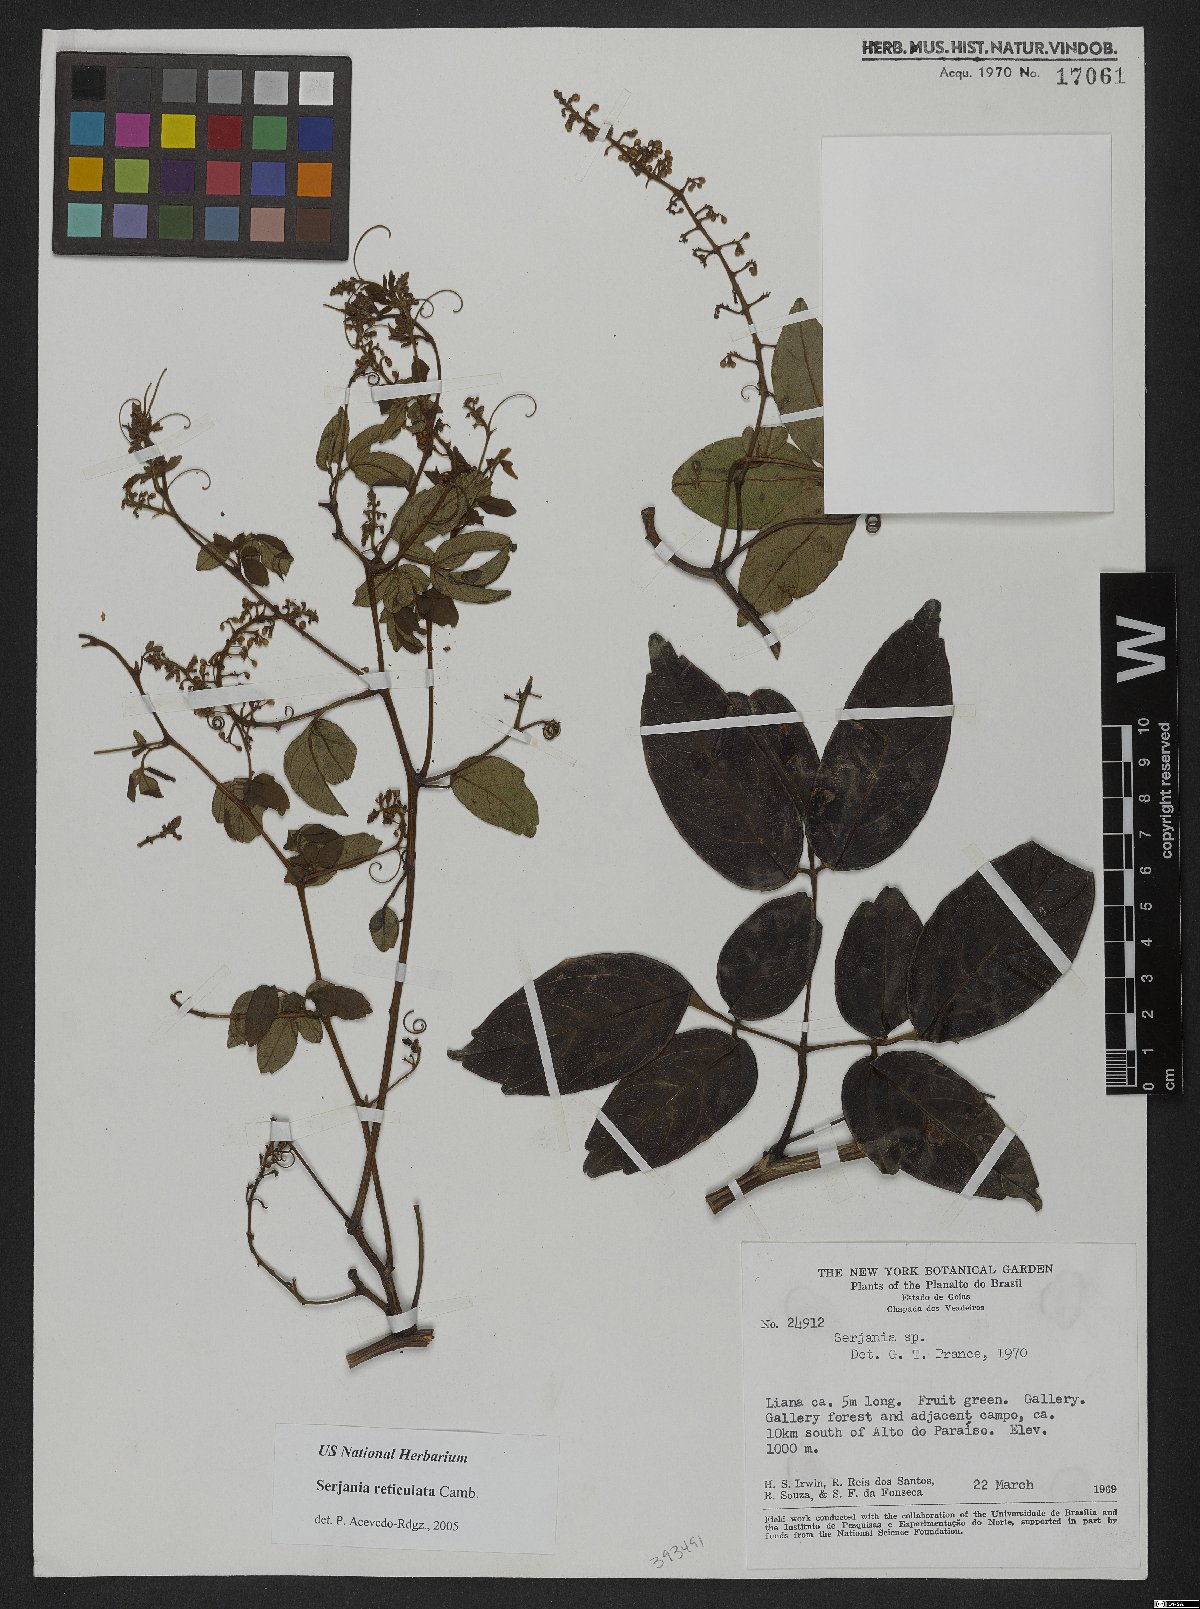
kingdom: Plantae
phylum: Tracheophyta
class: Magnoliopsida
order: Sapindales
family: Sapindaceae
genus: Serjania
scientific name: Serjania reticulata
